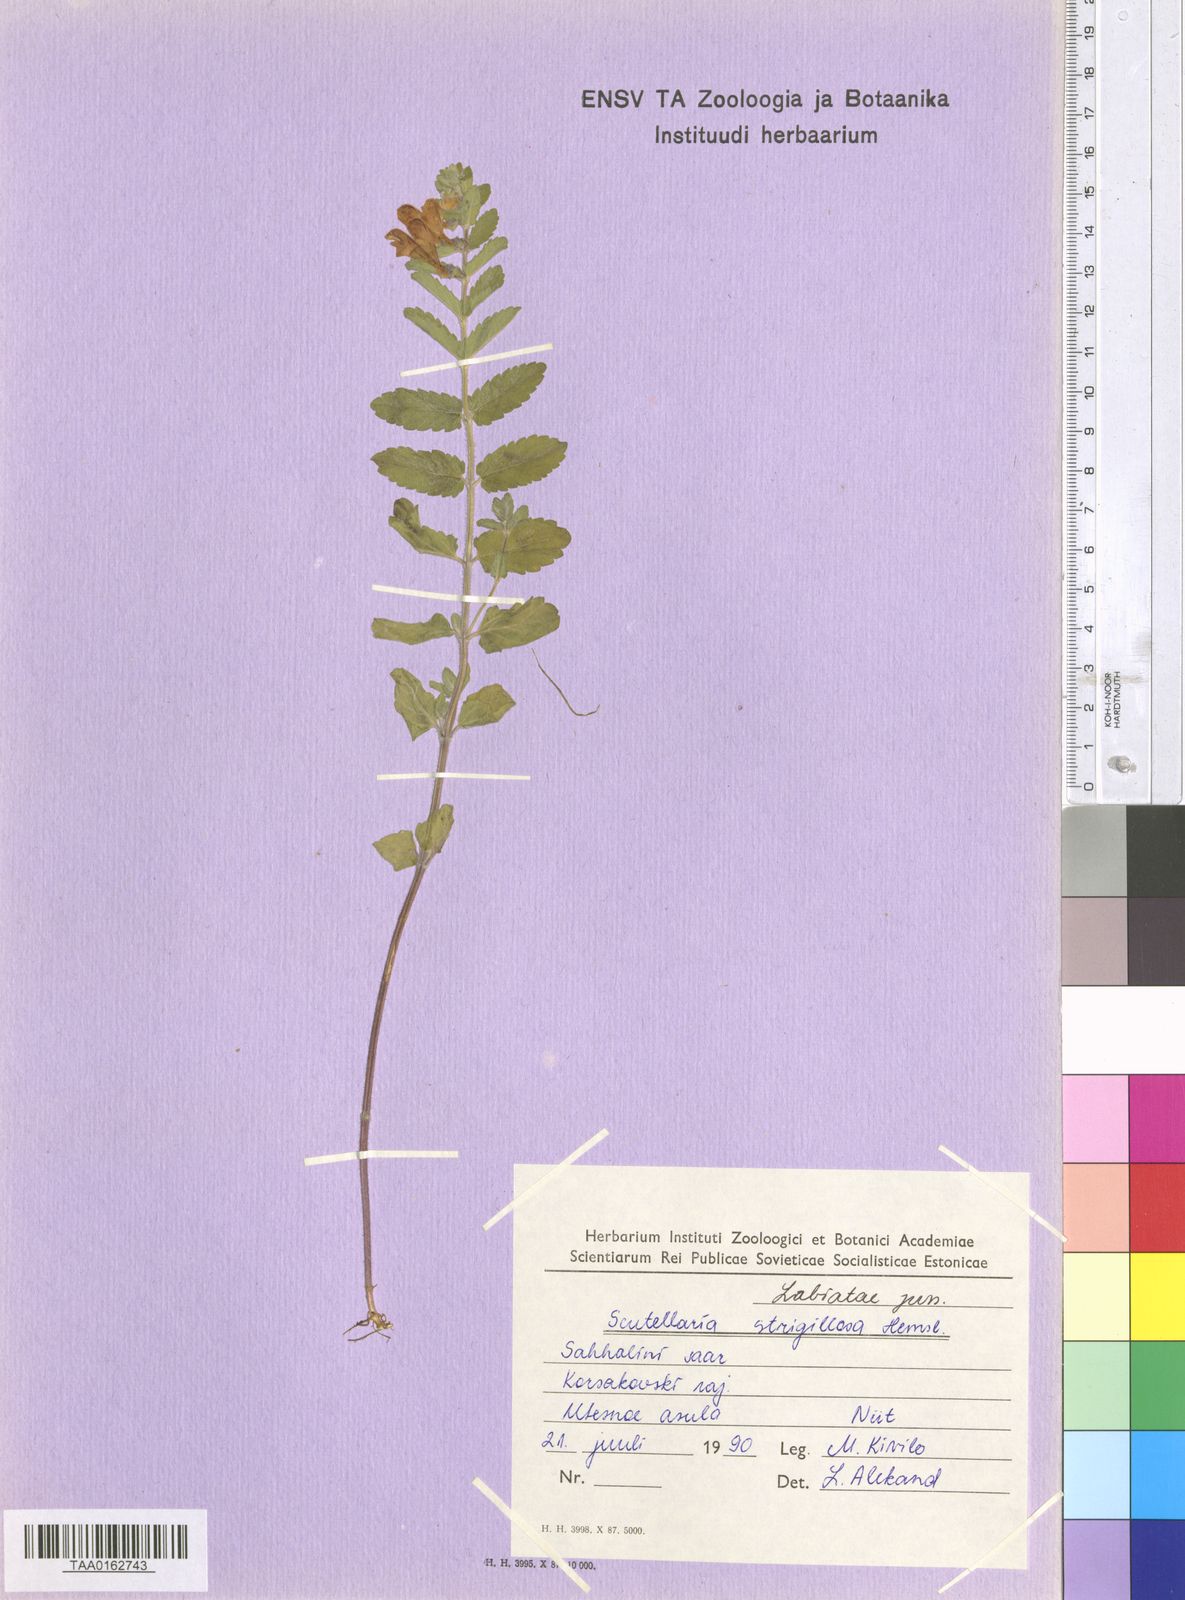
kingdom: Plantae
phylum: Tracheophyta
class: Magnoliopsida
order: Lamiales
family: Lamiaceae
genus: Scutellaria
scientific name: Scutellaria strigillosa
